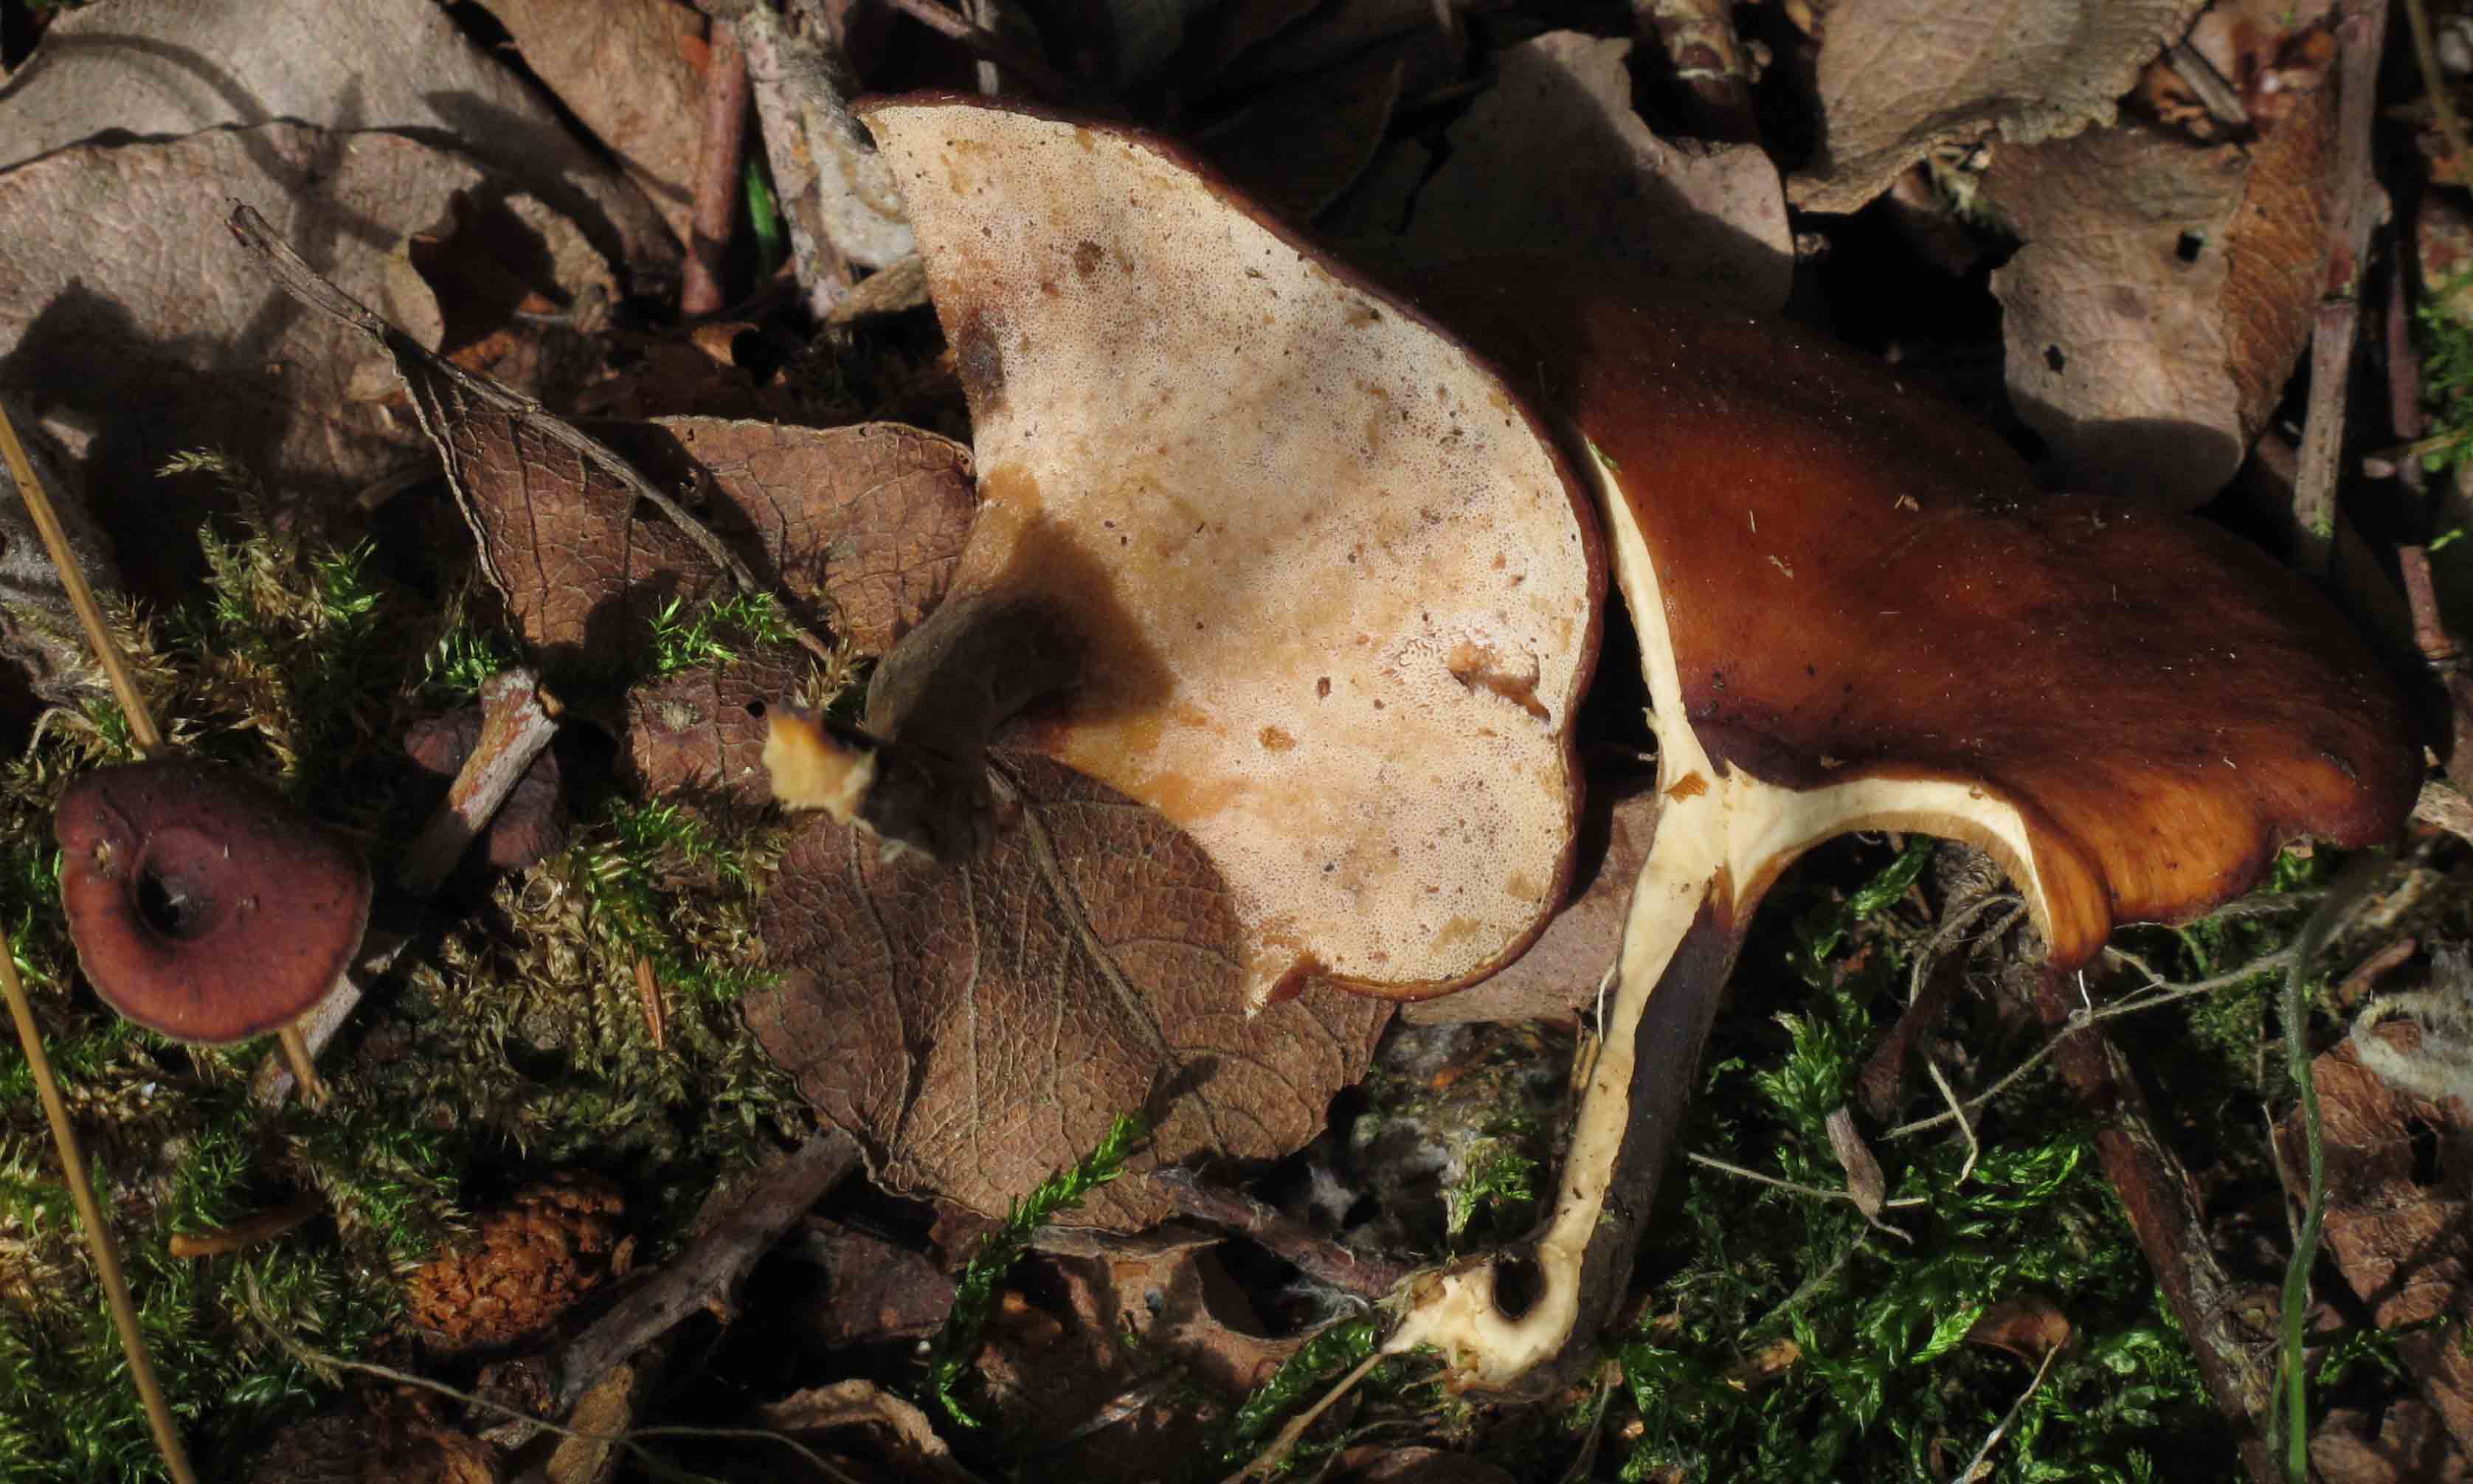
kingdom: Fungi
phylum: Basidiomycota
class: Agaricomycetes
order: Polyporales
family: Polyporaceae
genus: Picipes
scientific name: Picipes tubaeformis
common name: trompet-stilkporesvamp
